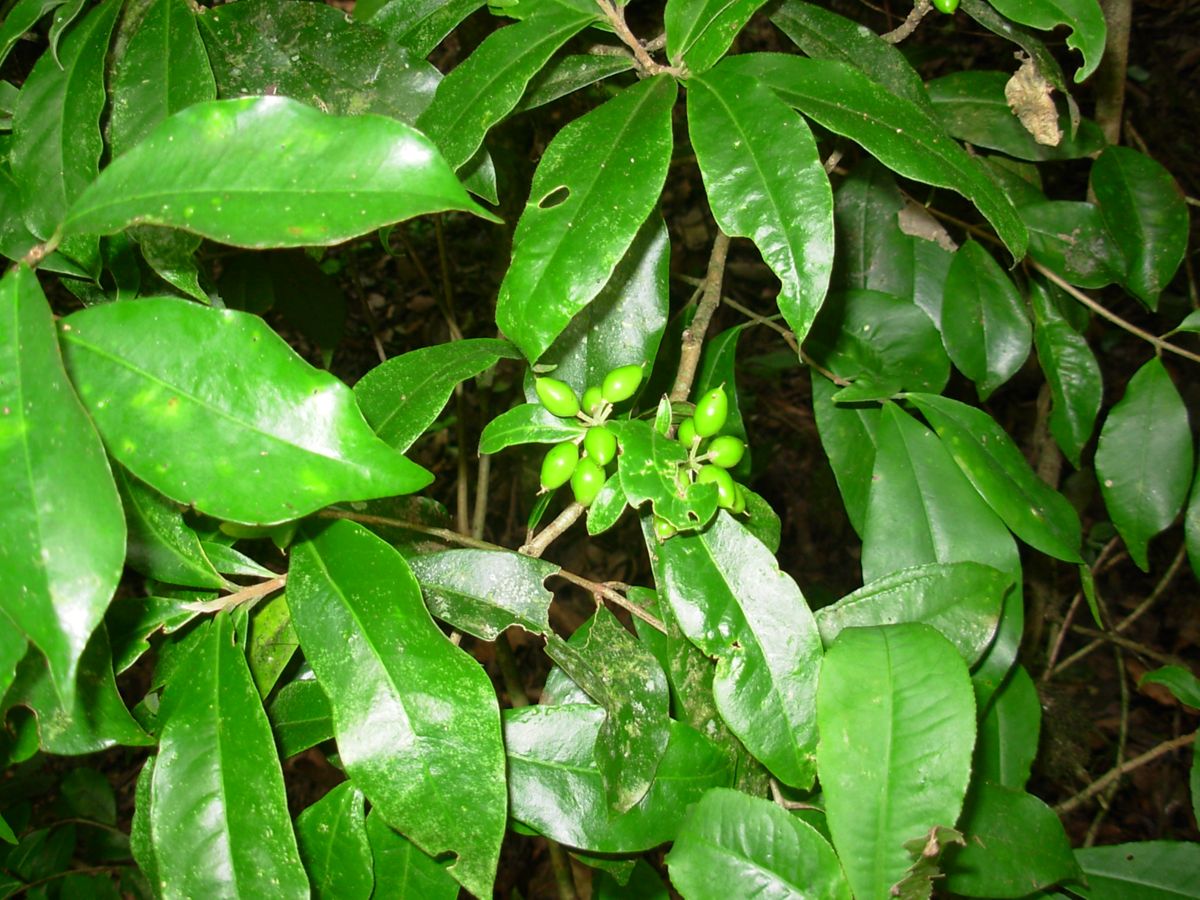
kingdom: Plantae
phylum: Tracheophyta
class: Magnoliopsida
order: Malvales
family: Thymelaeaceae
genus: Daphnopsis
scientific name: Daphnopsis selerorum
